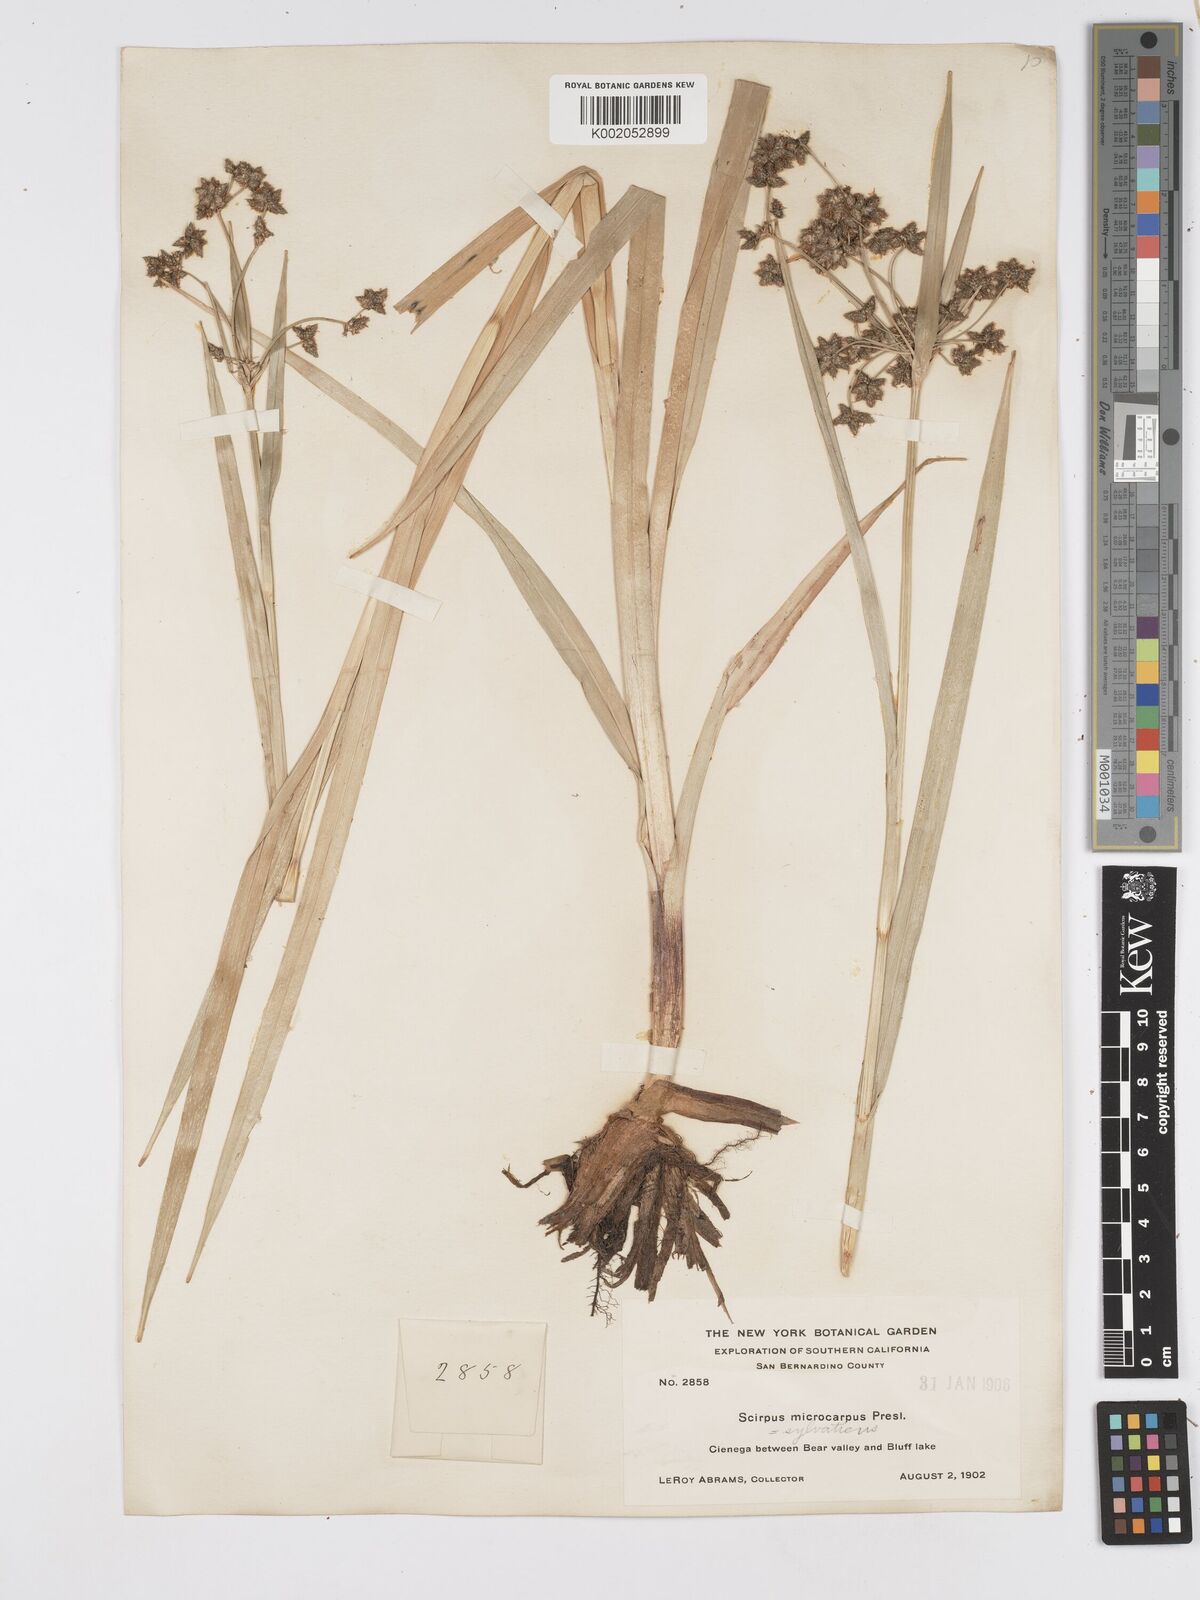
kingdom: Plantae
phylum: Tracheophyta
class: Liliopsida
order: Poales
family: Cyperaceae
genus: Scirpus
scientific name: Scirpus sylvaticus
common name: Wood club-rush
